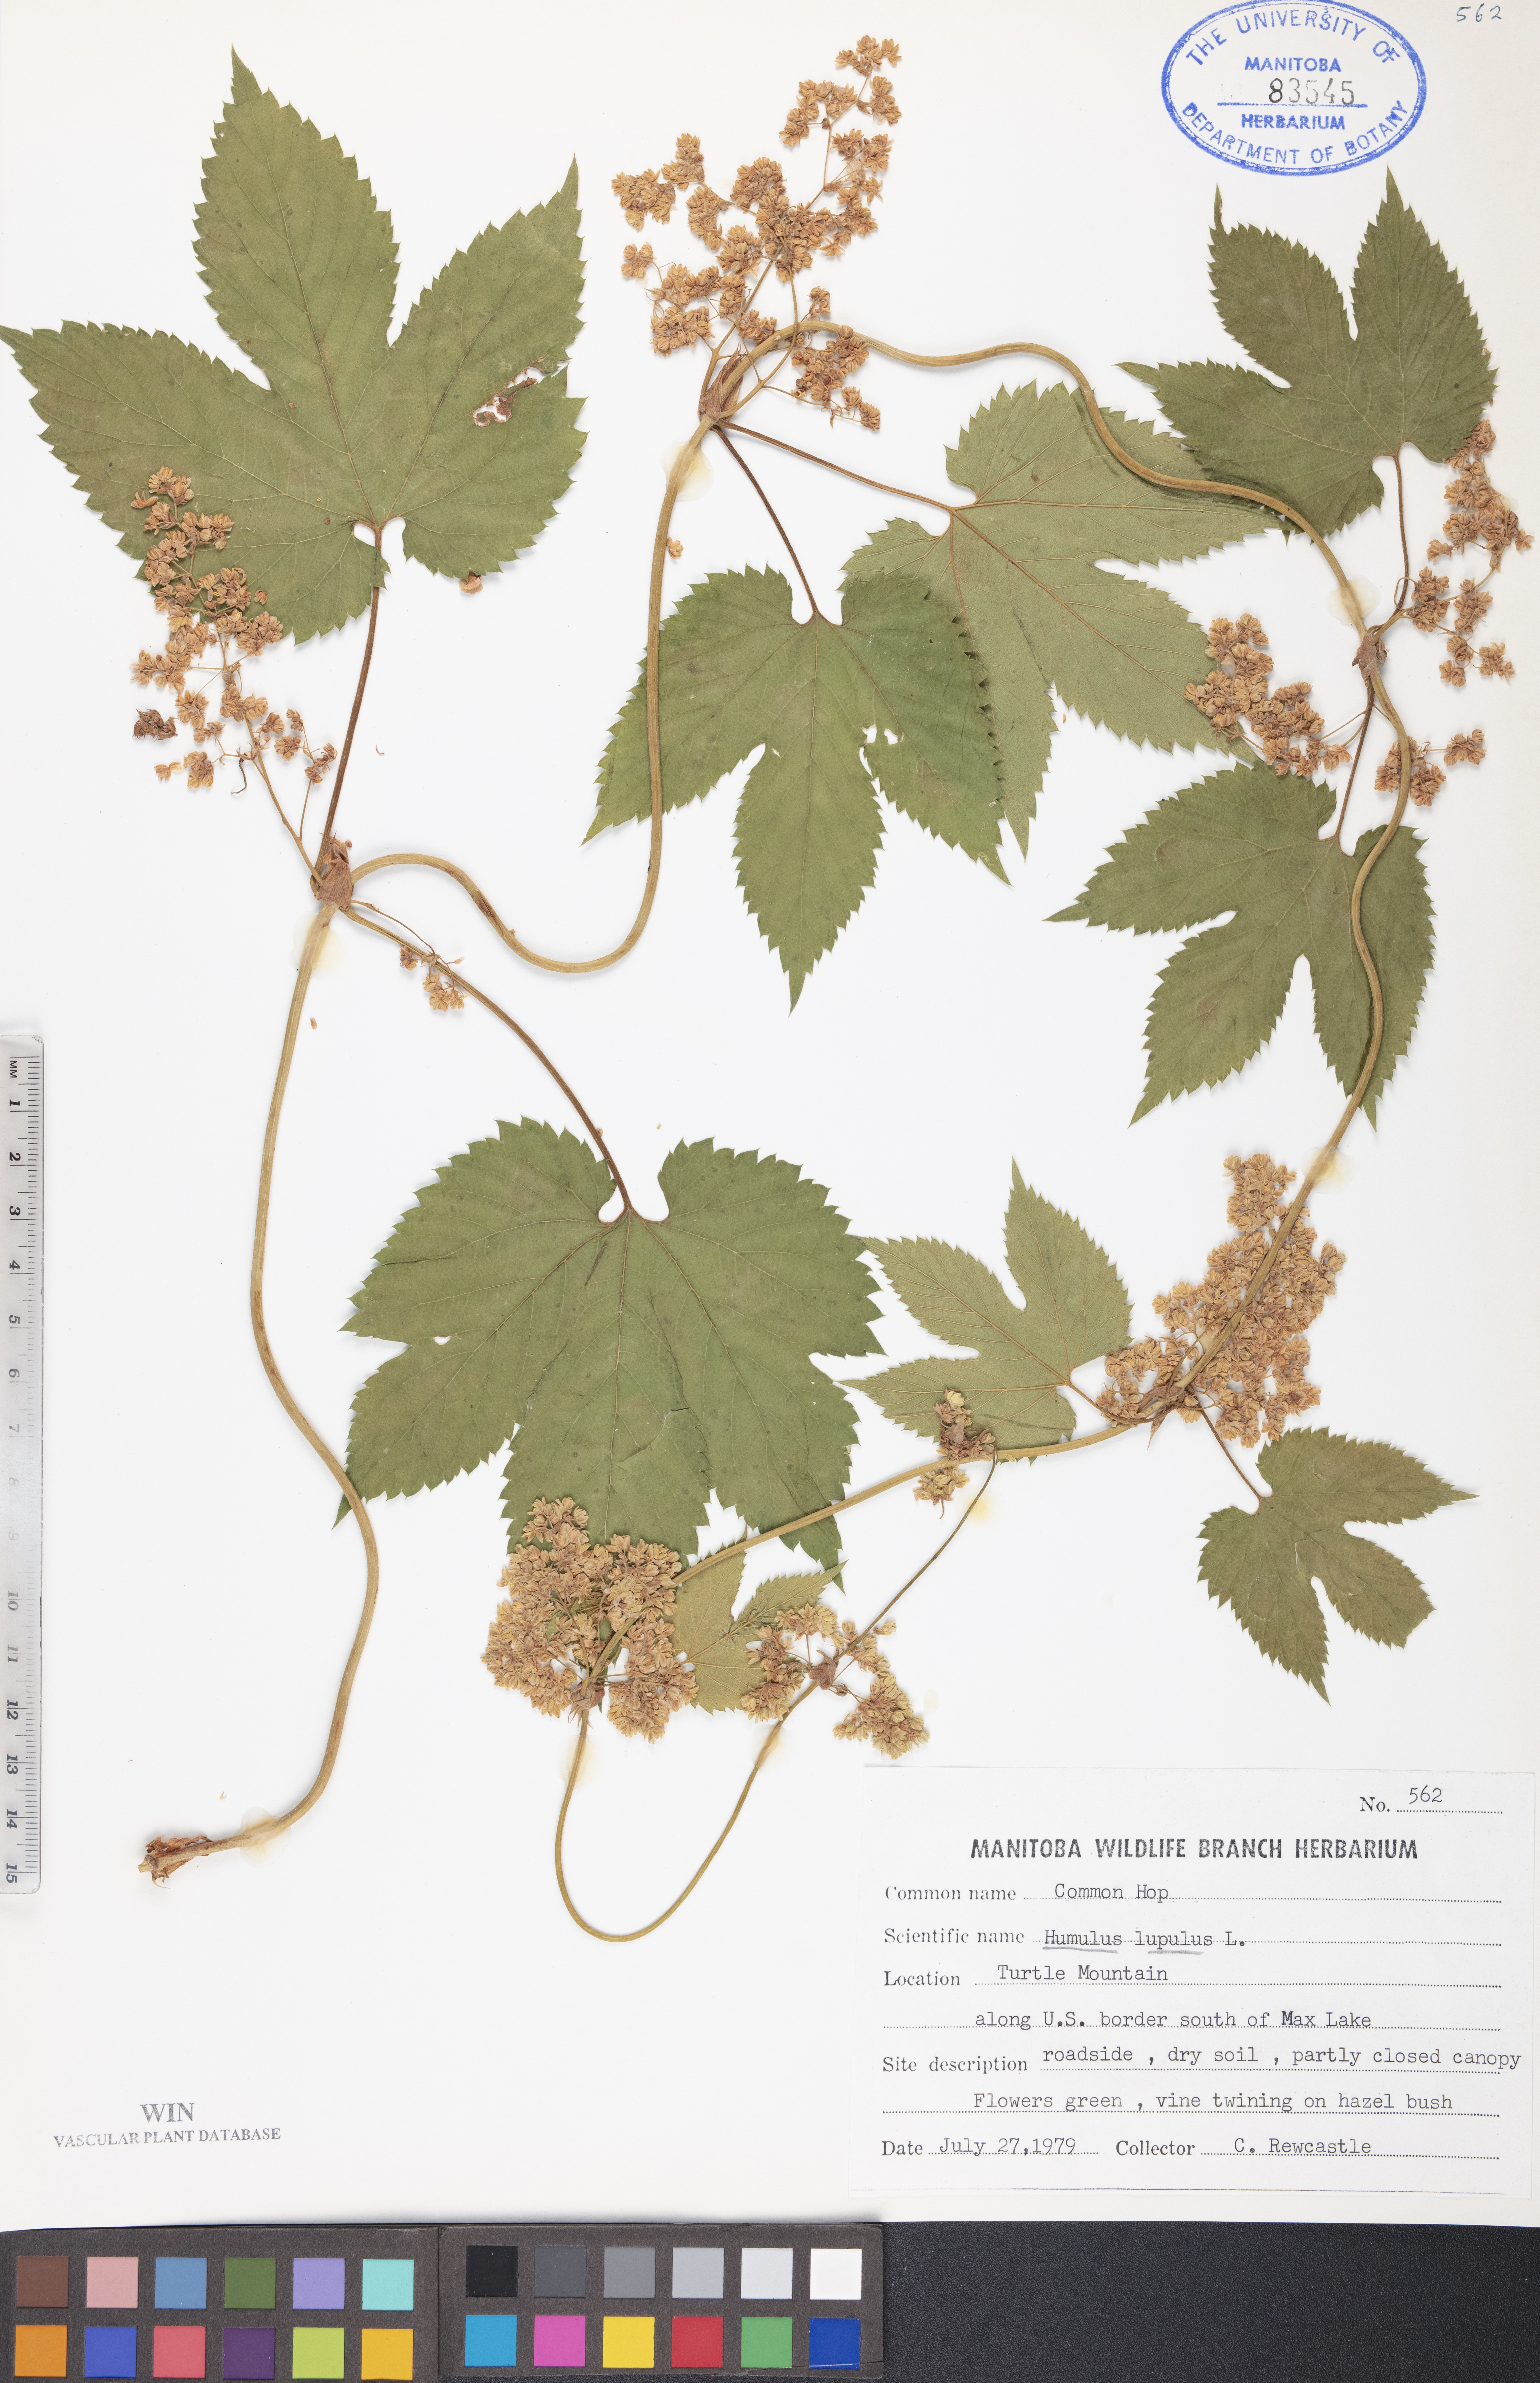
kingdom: Plantae
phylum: Tracheophyta
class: Magnoliopsida
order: Rosales
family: Cannabaceae
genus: Humulus
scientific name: Humulus lupulus
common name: Hop
